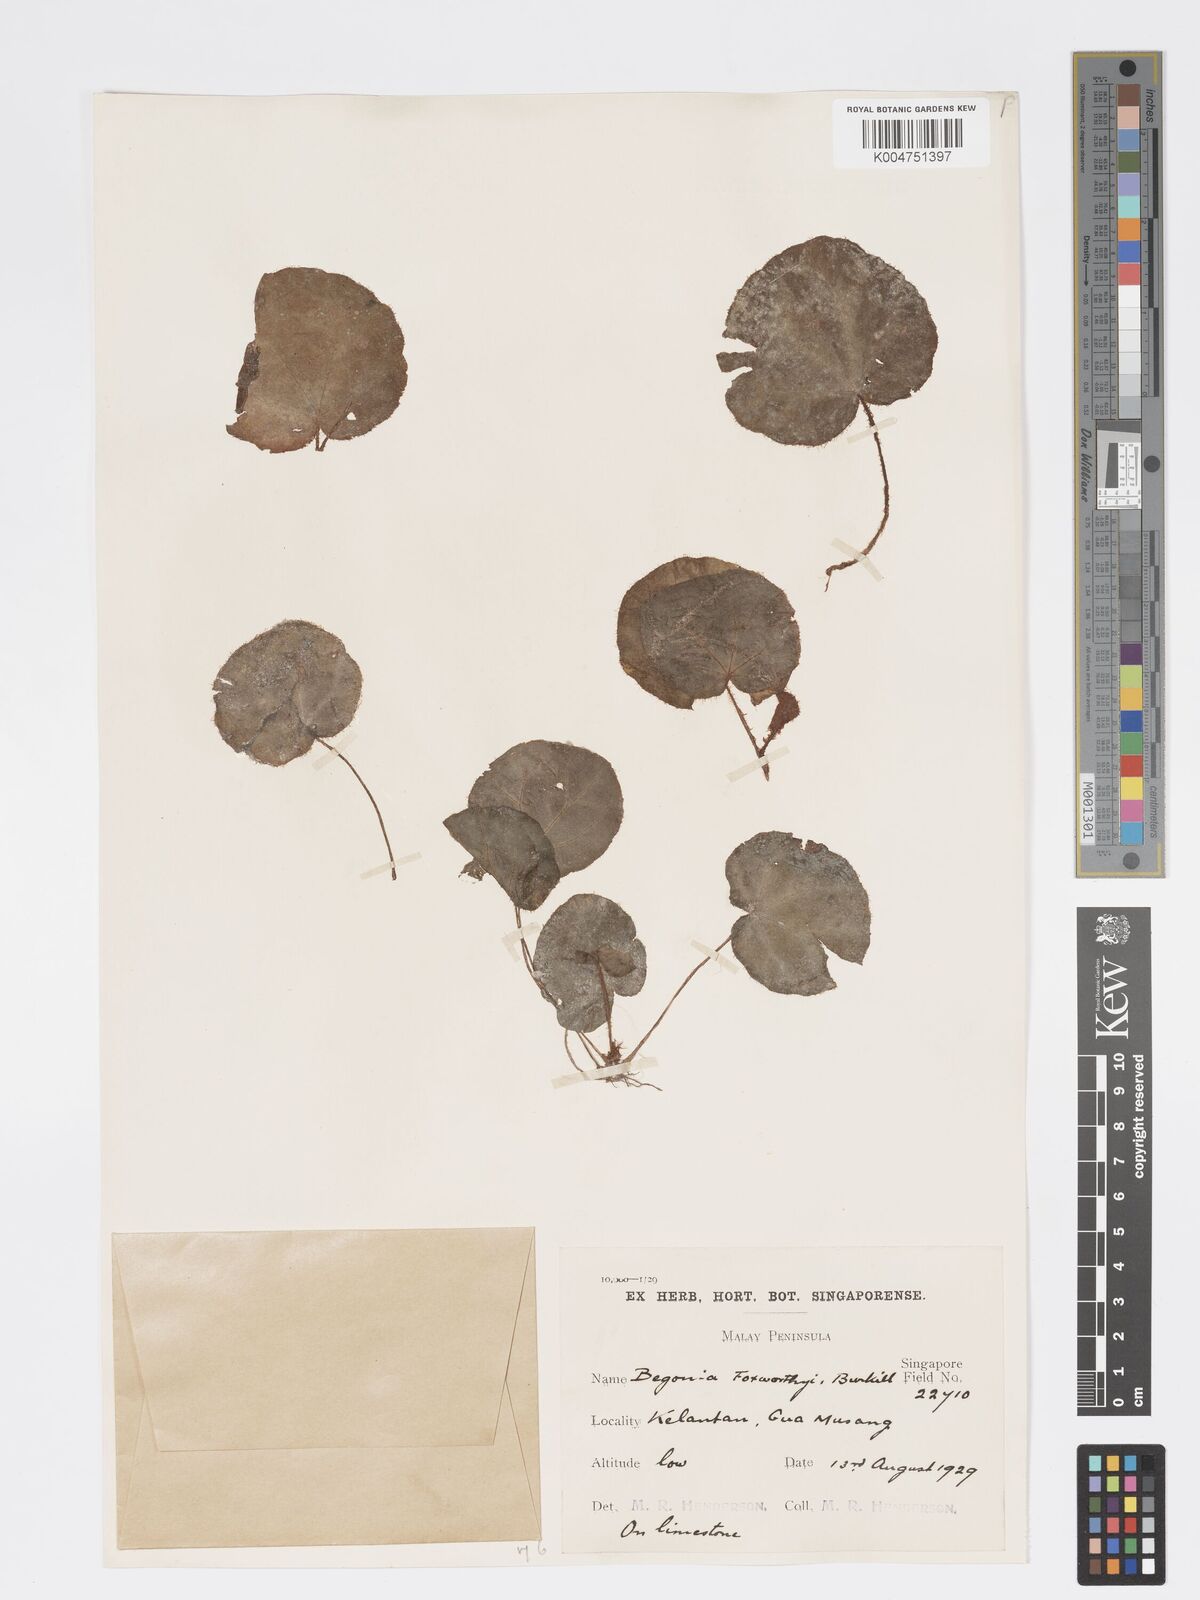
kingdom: Plantae
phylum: Tracheophyta
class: Magnoliopsida
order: Cucurbitales
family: Begoniaceae
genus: Begonia
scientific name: Begonia foxworthyi
